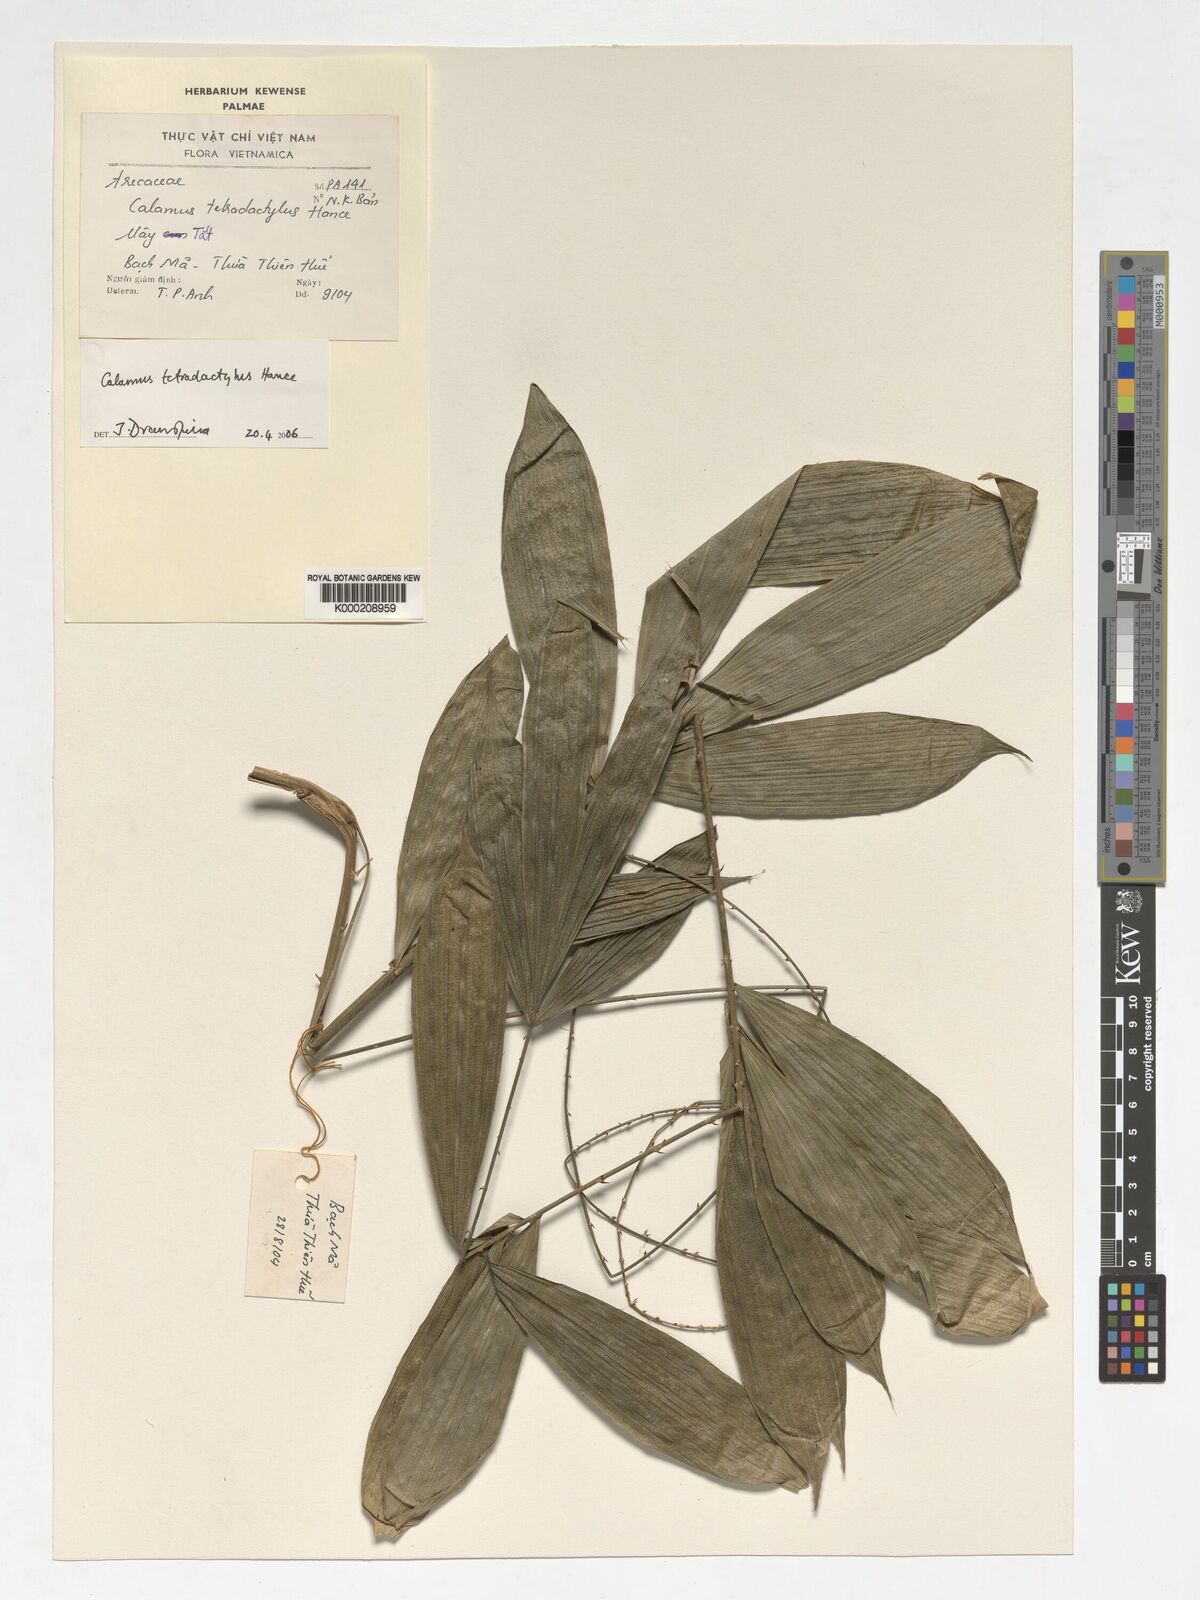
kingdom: Plantae
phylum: Tracheophyta
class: Liliopsida
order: Arecales
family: Arecaceae
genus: Calamus
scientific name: Calamus tetradactyloides
